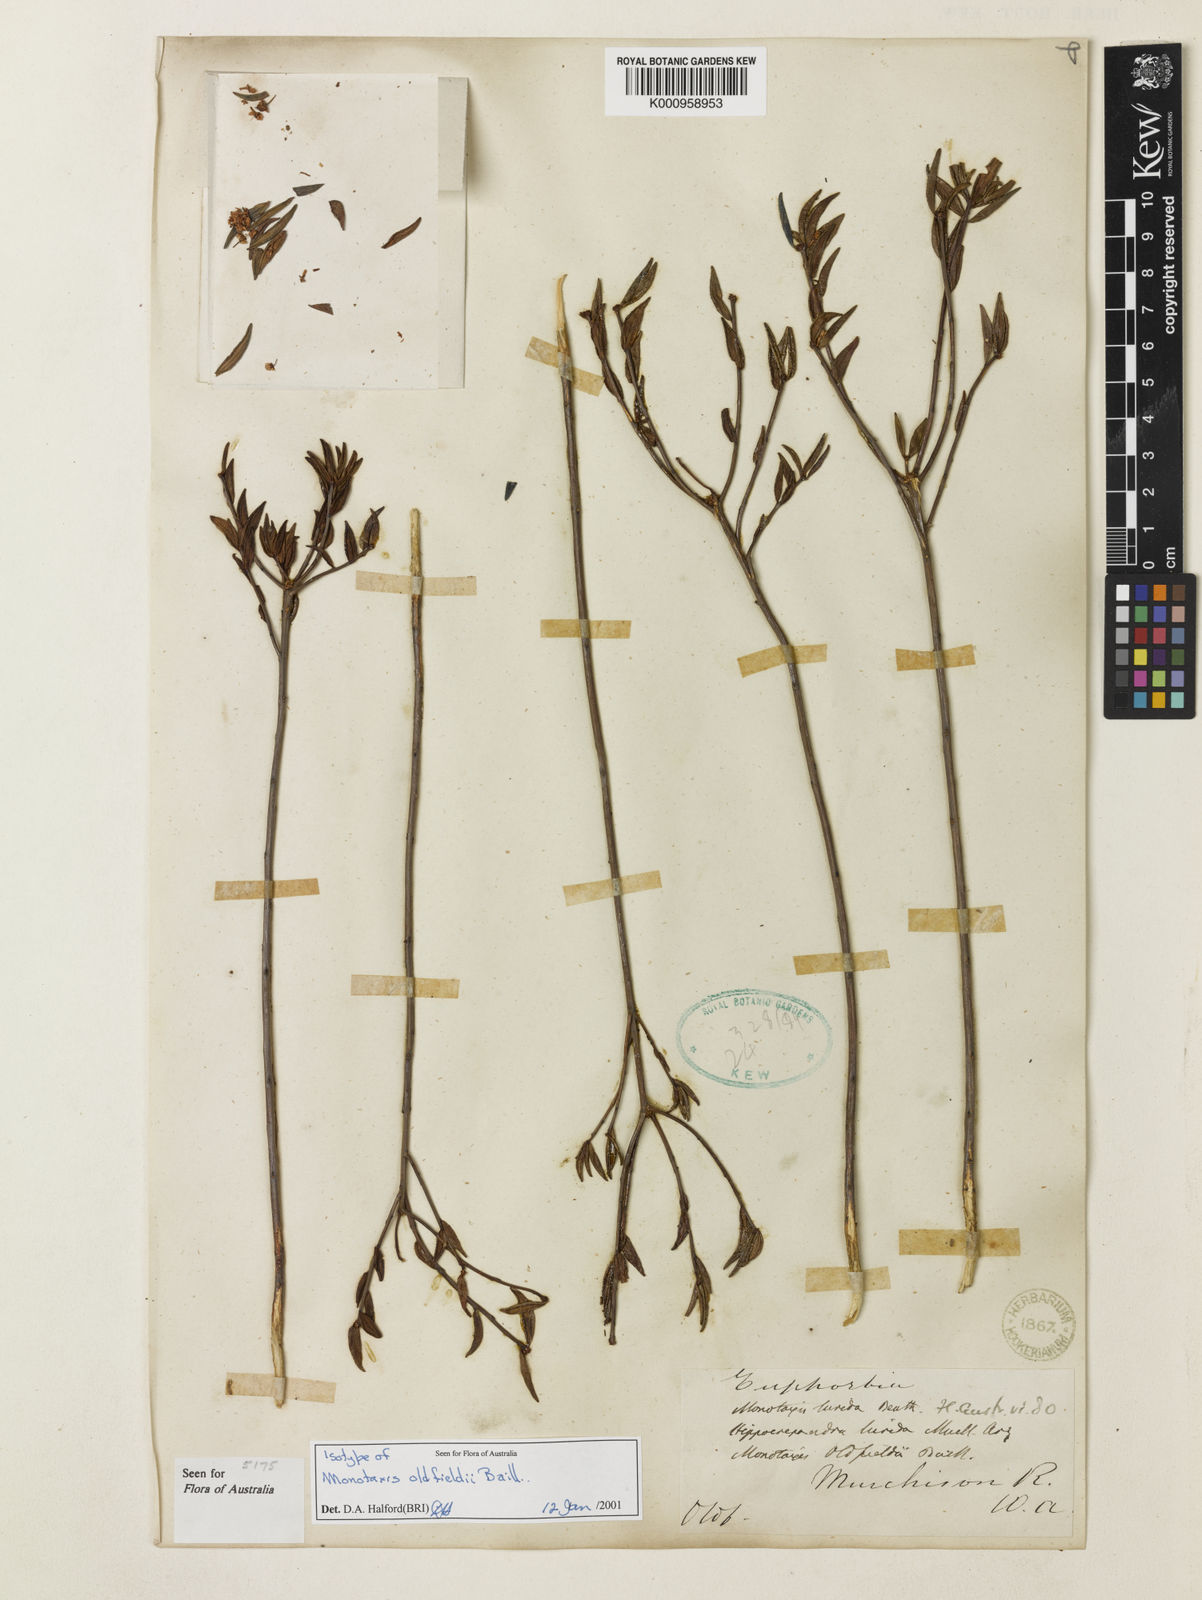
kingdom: Plantae
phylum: Tracheophyta
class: Magnoliopsida
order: Malpighiales
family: Euphorbiaceae
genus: Monotaxis
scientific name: Monotaxis
